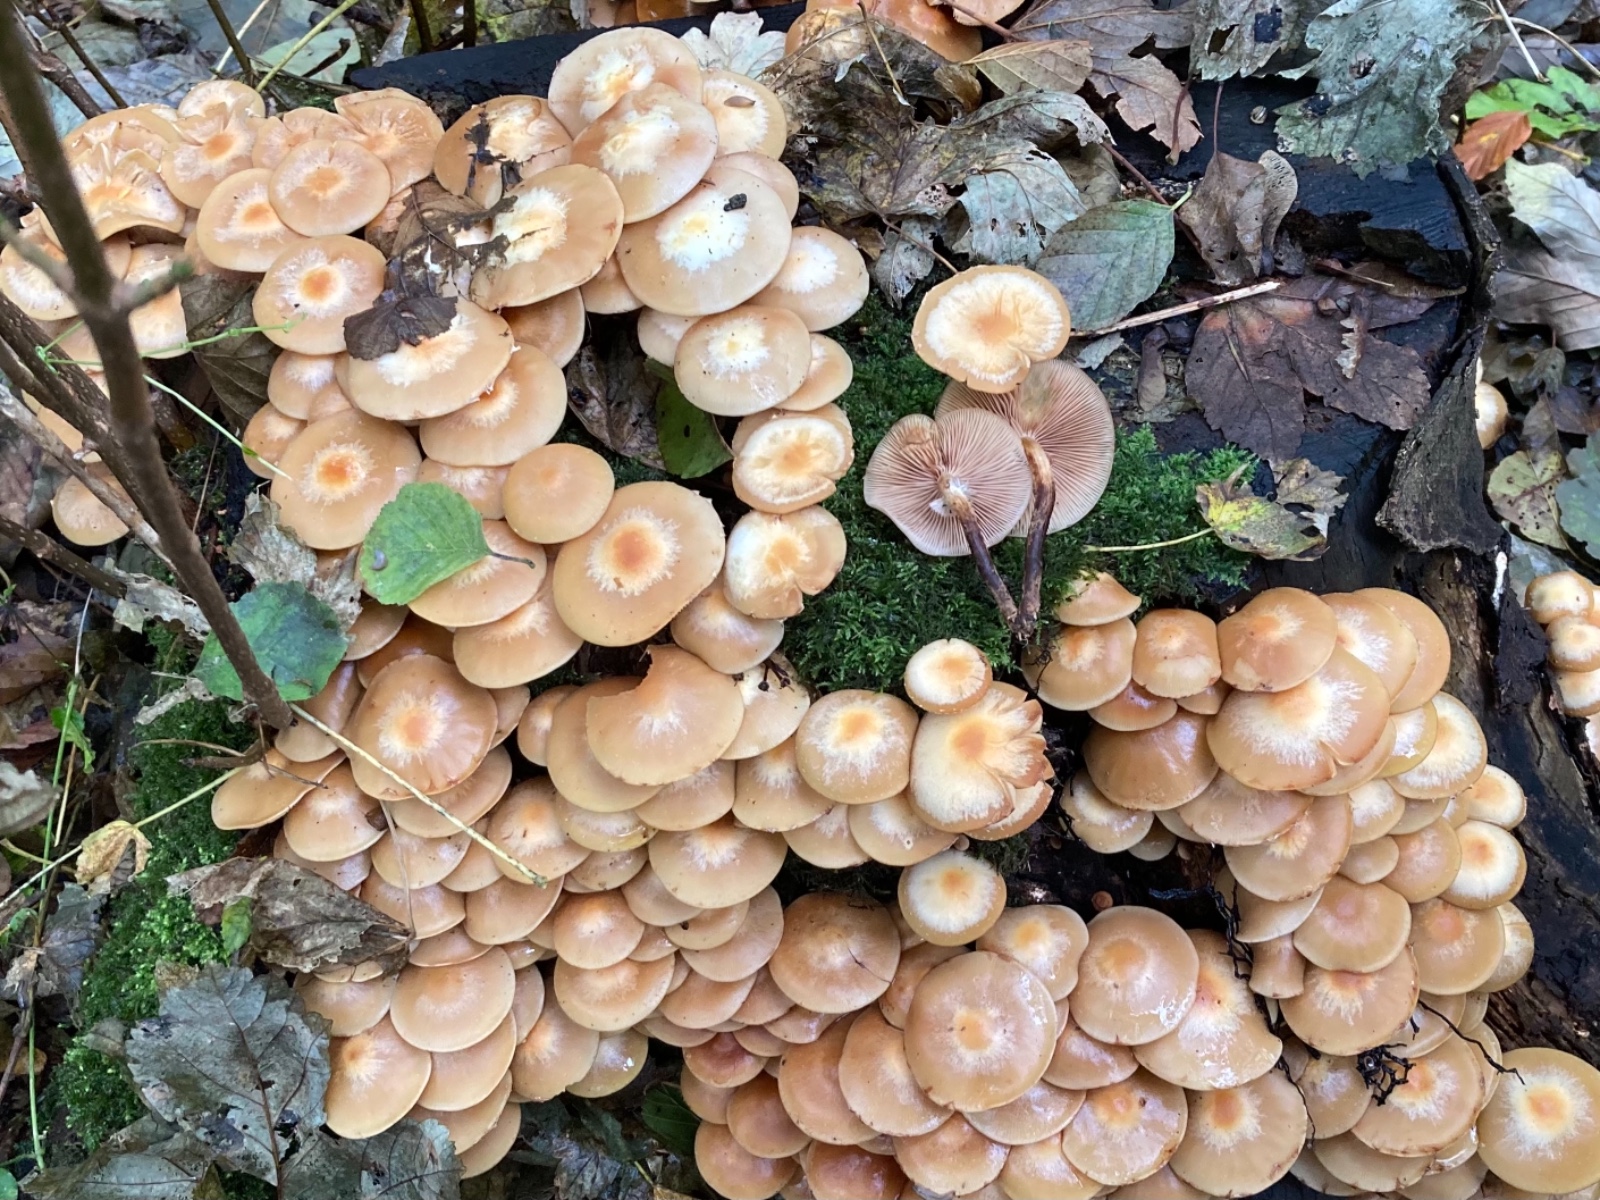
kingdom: Fungi
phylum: Basidiomycota
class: Agaricomycetes
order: Agaricales
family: Strophariaceae
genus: Kuehneromyces
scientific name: Kuehneromyces mutabilis
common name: foranderlig skælhat
